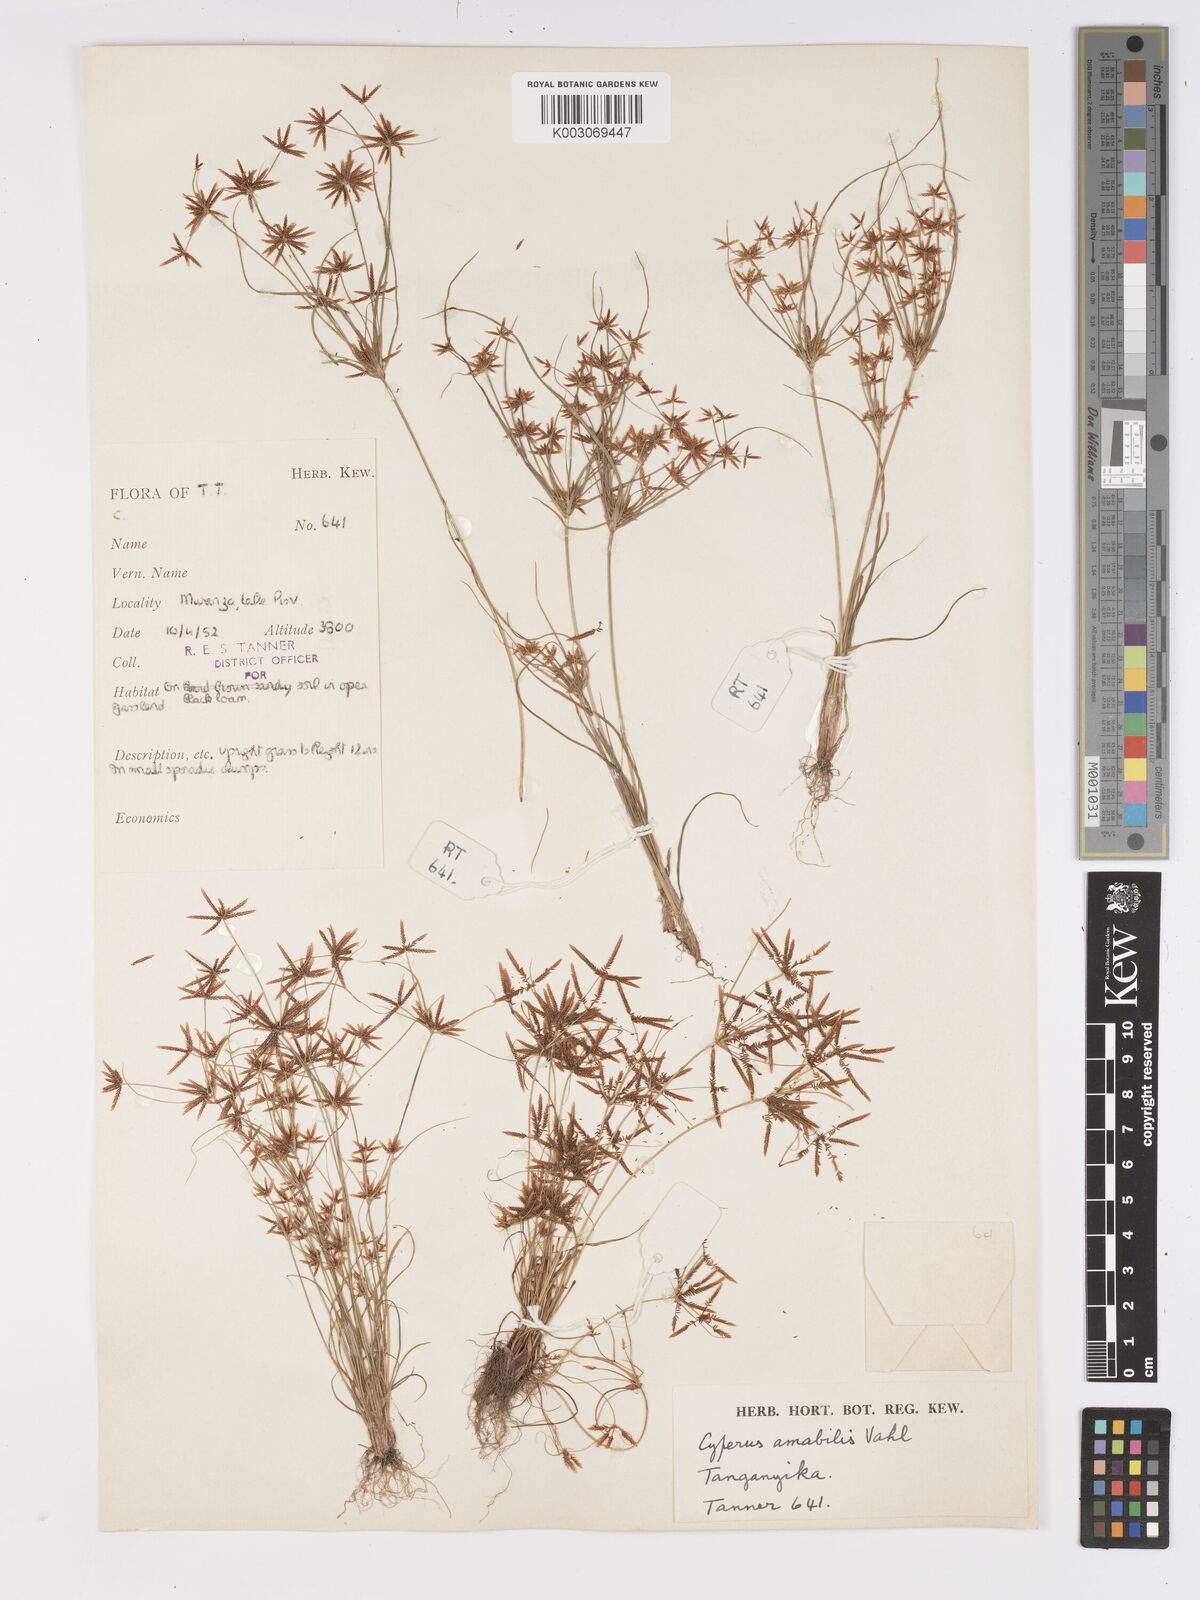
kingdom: Plantae
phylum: Tracheophyta
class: Liliopsida
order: Poales
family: Cyperaceae
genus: Cyperus
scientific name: Cyperus amabilis
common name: Foothill flat sedge
